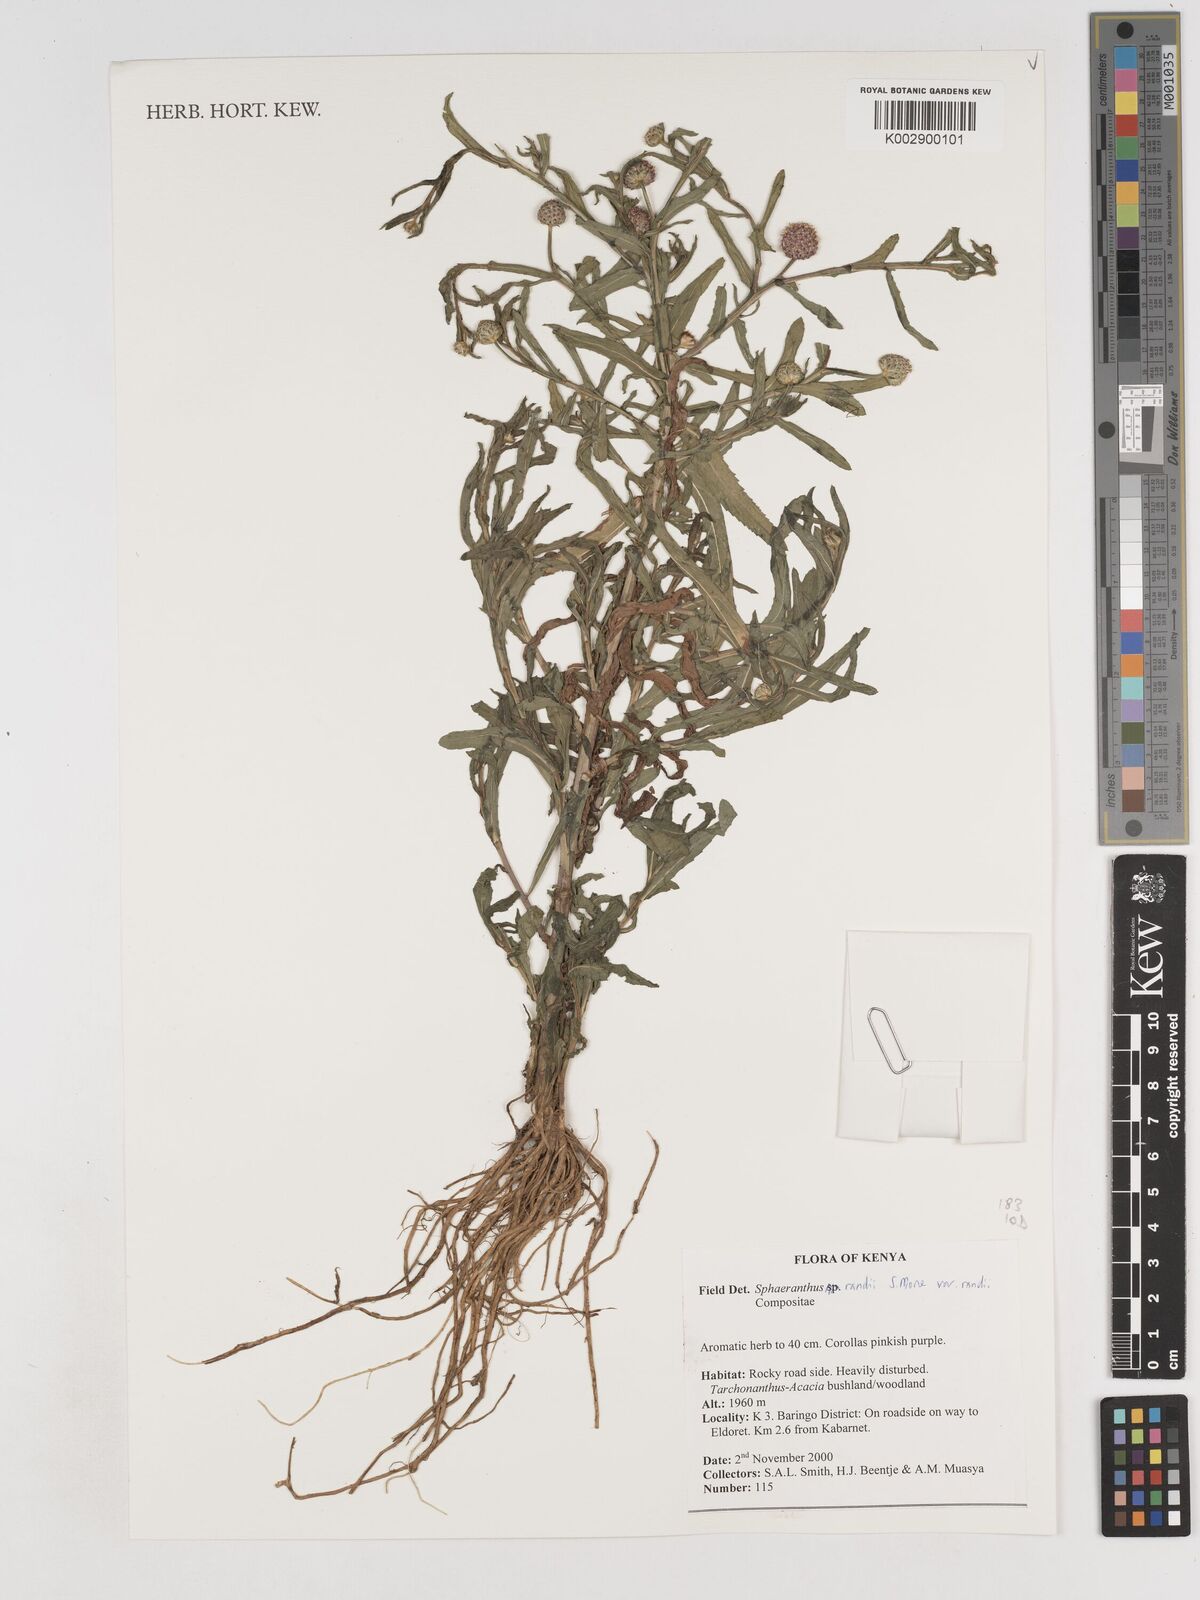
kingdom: Plantae
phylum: Tracheophyta
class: Magnoliopsida
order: Asterales
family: Asteraceae
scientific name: Asteraceae
